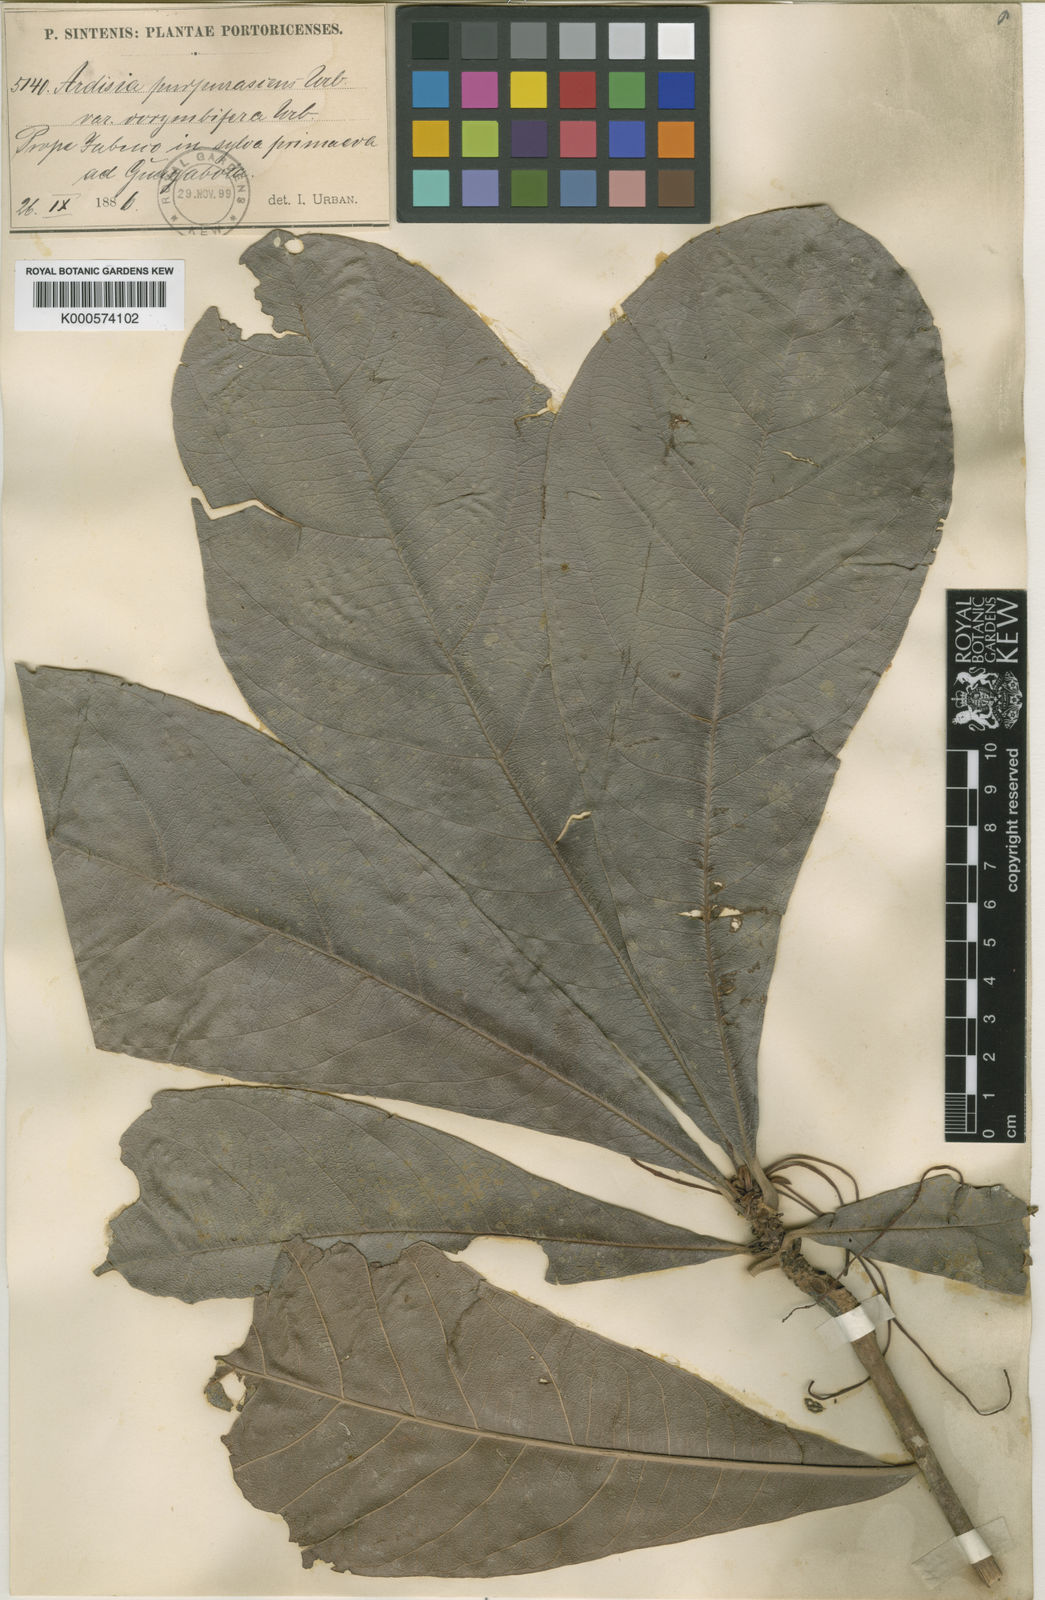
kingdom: Plantae
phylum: Tracheophyta
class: Magnoliopsida
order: Ericales
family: Primulaceae
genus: Wallenia
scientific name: Wallenia lamarckiana
